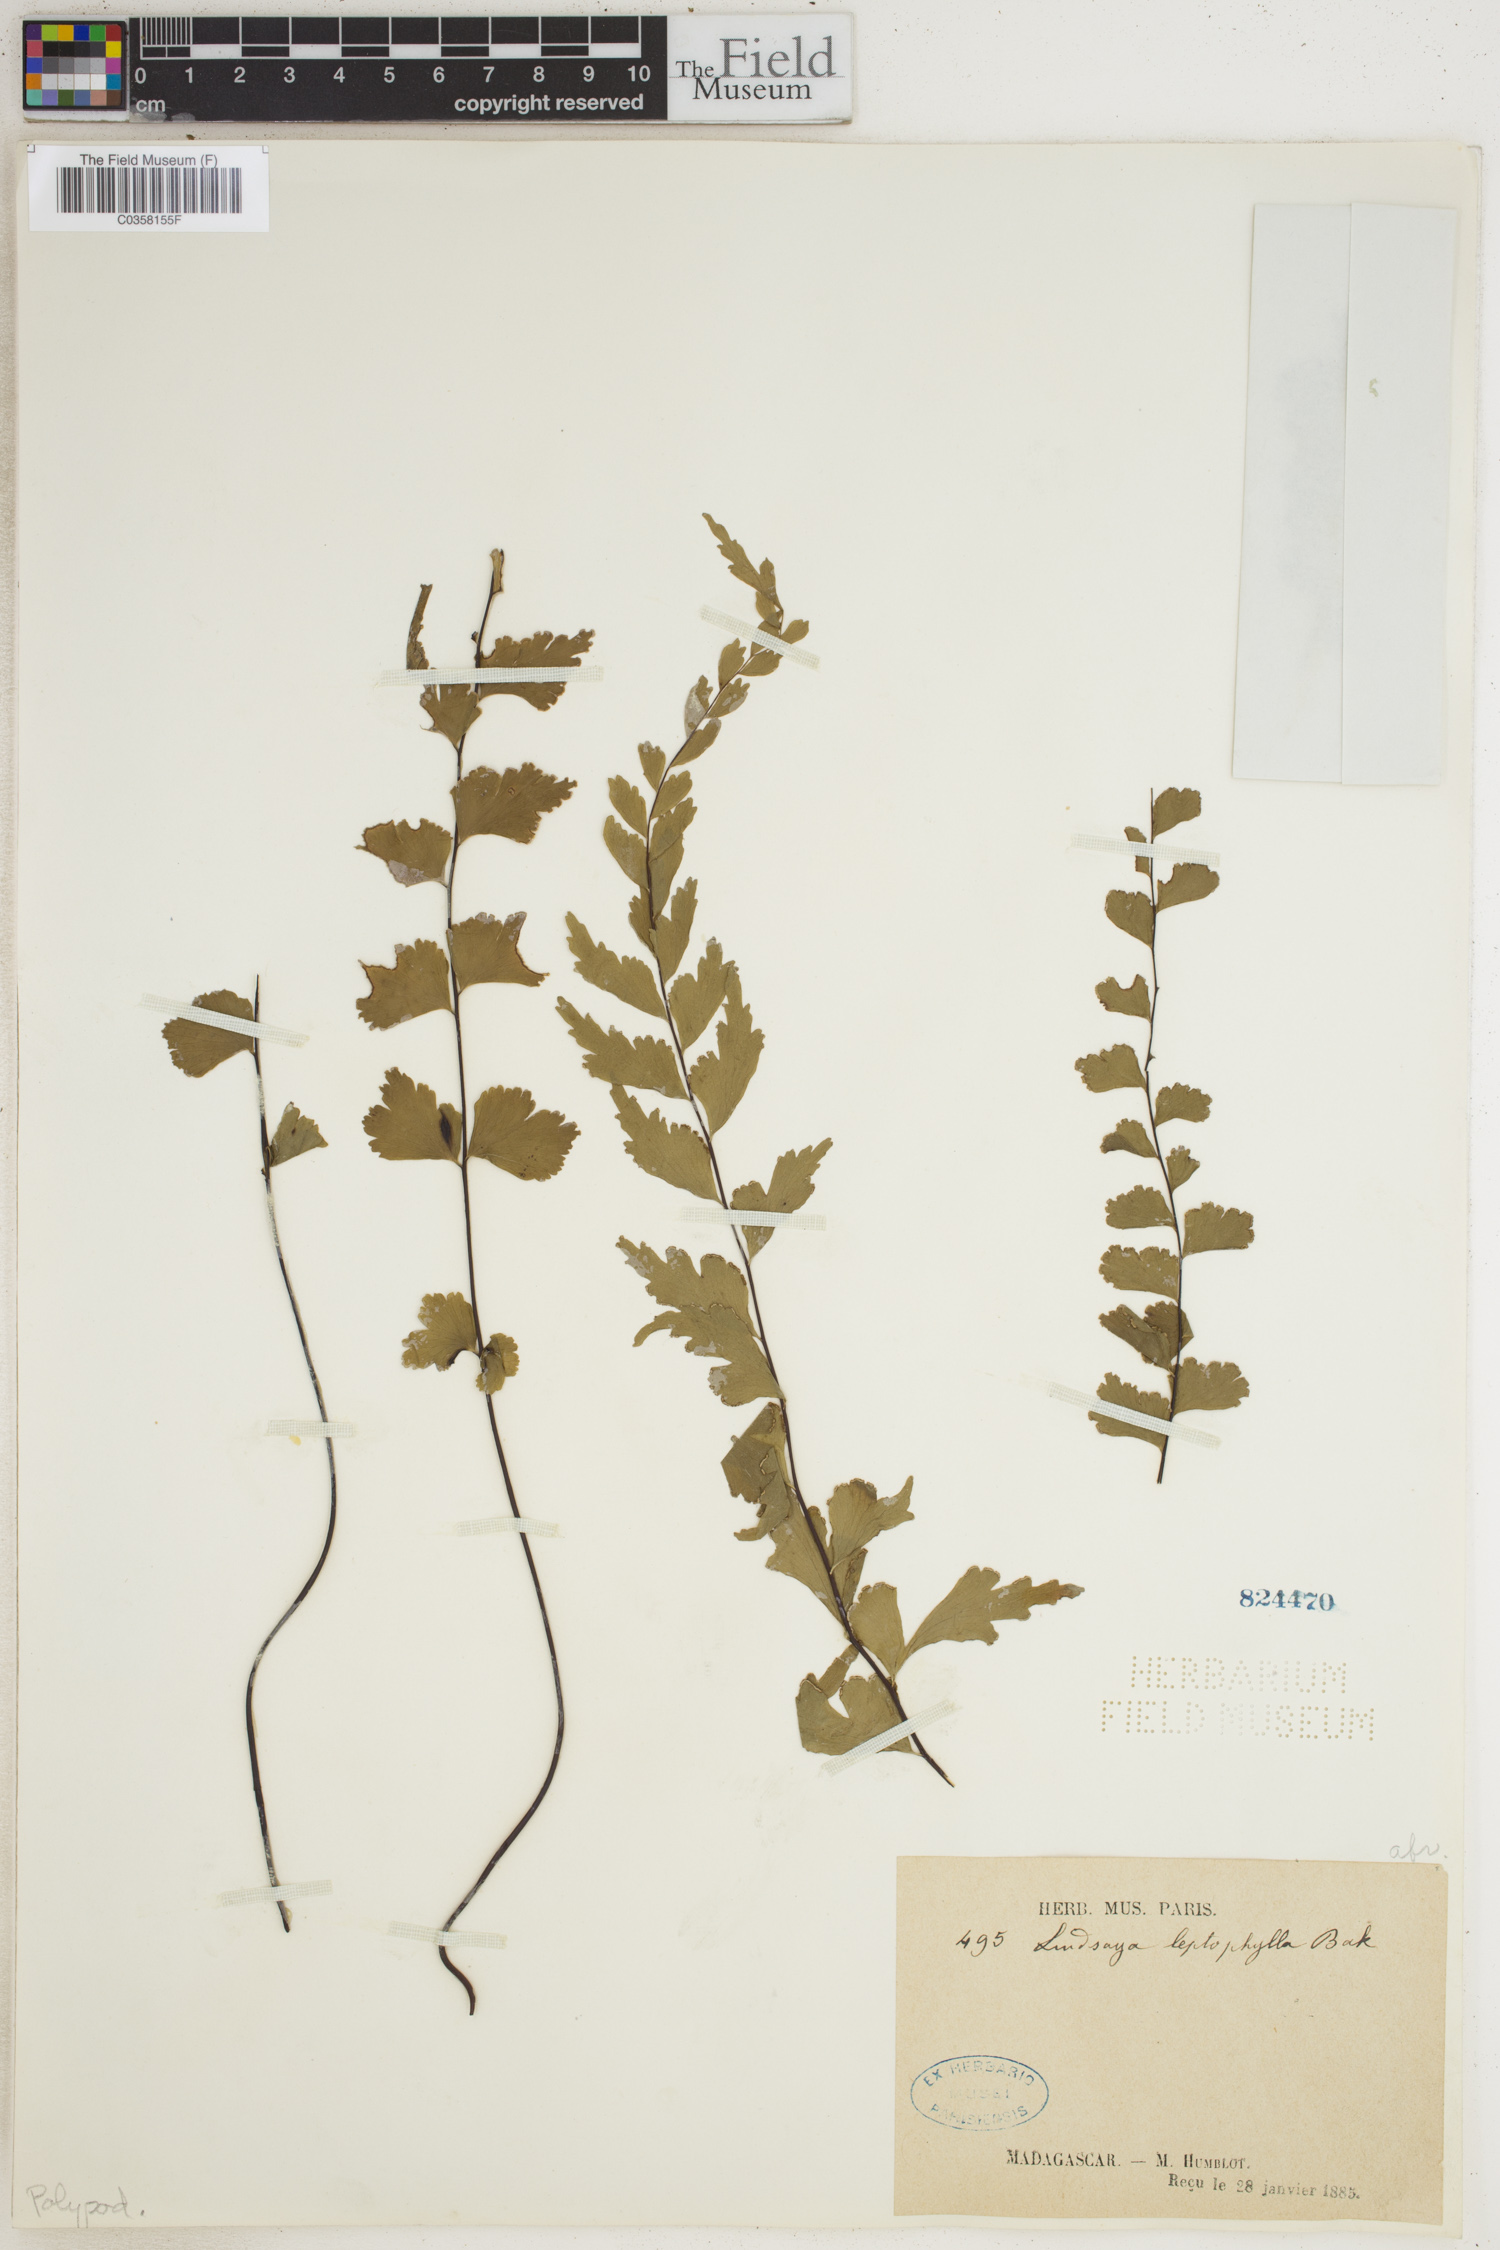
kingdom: Plantae
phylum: Tracheophyta
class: Polypodiopsida
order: Polypodiales
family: Lindsaeaceae
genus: Lindsaea
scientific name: Lindsaea leptophylla
